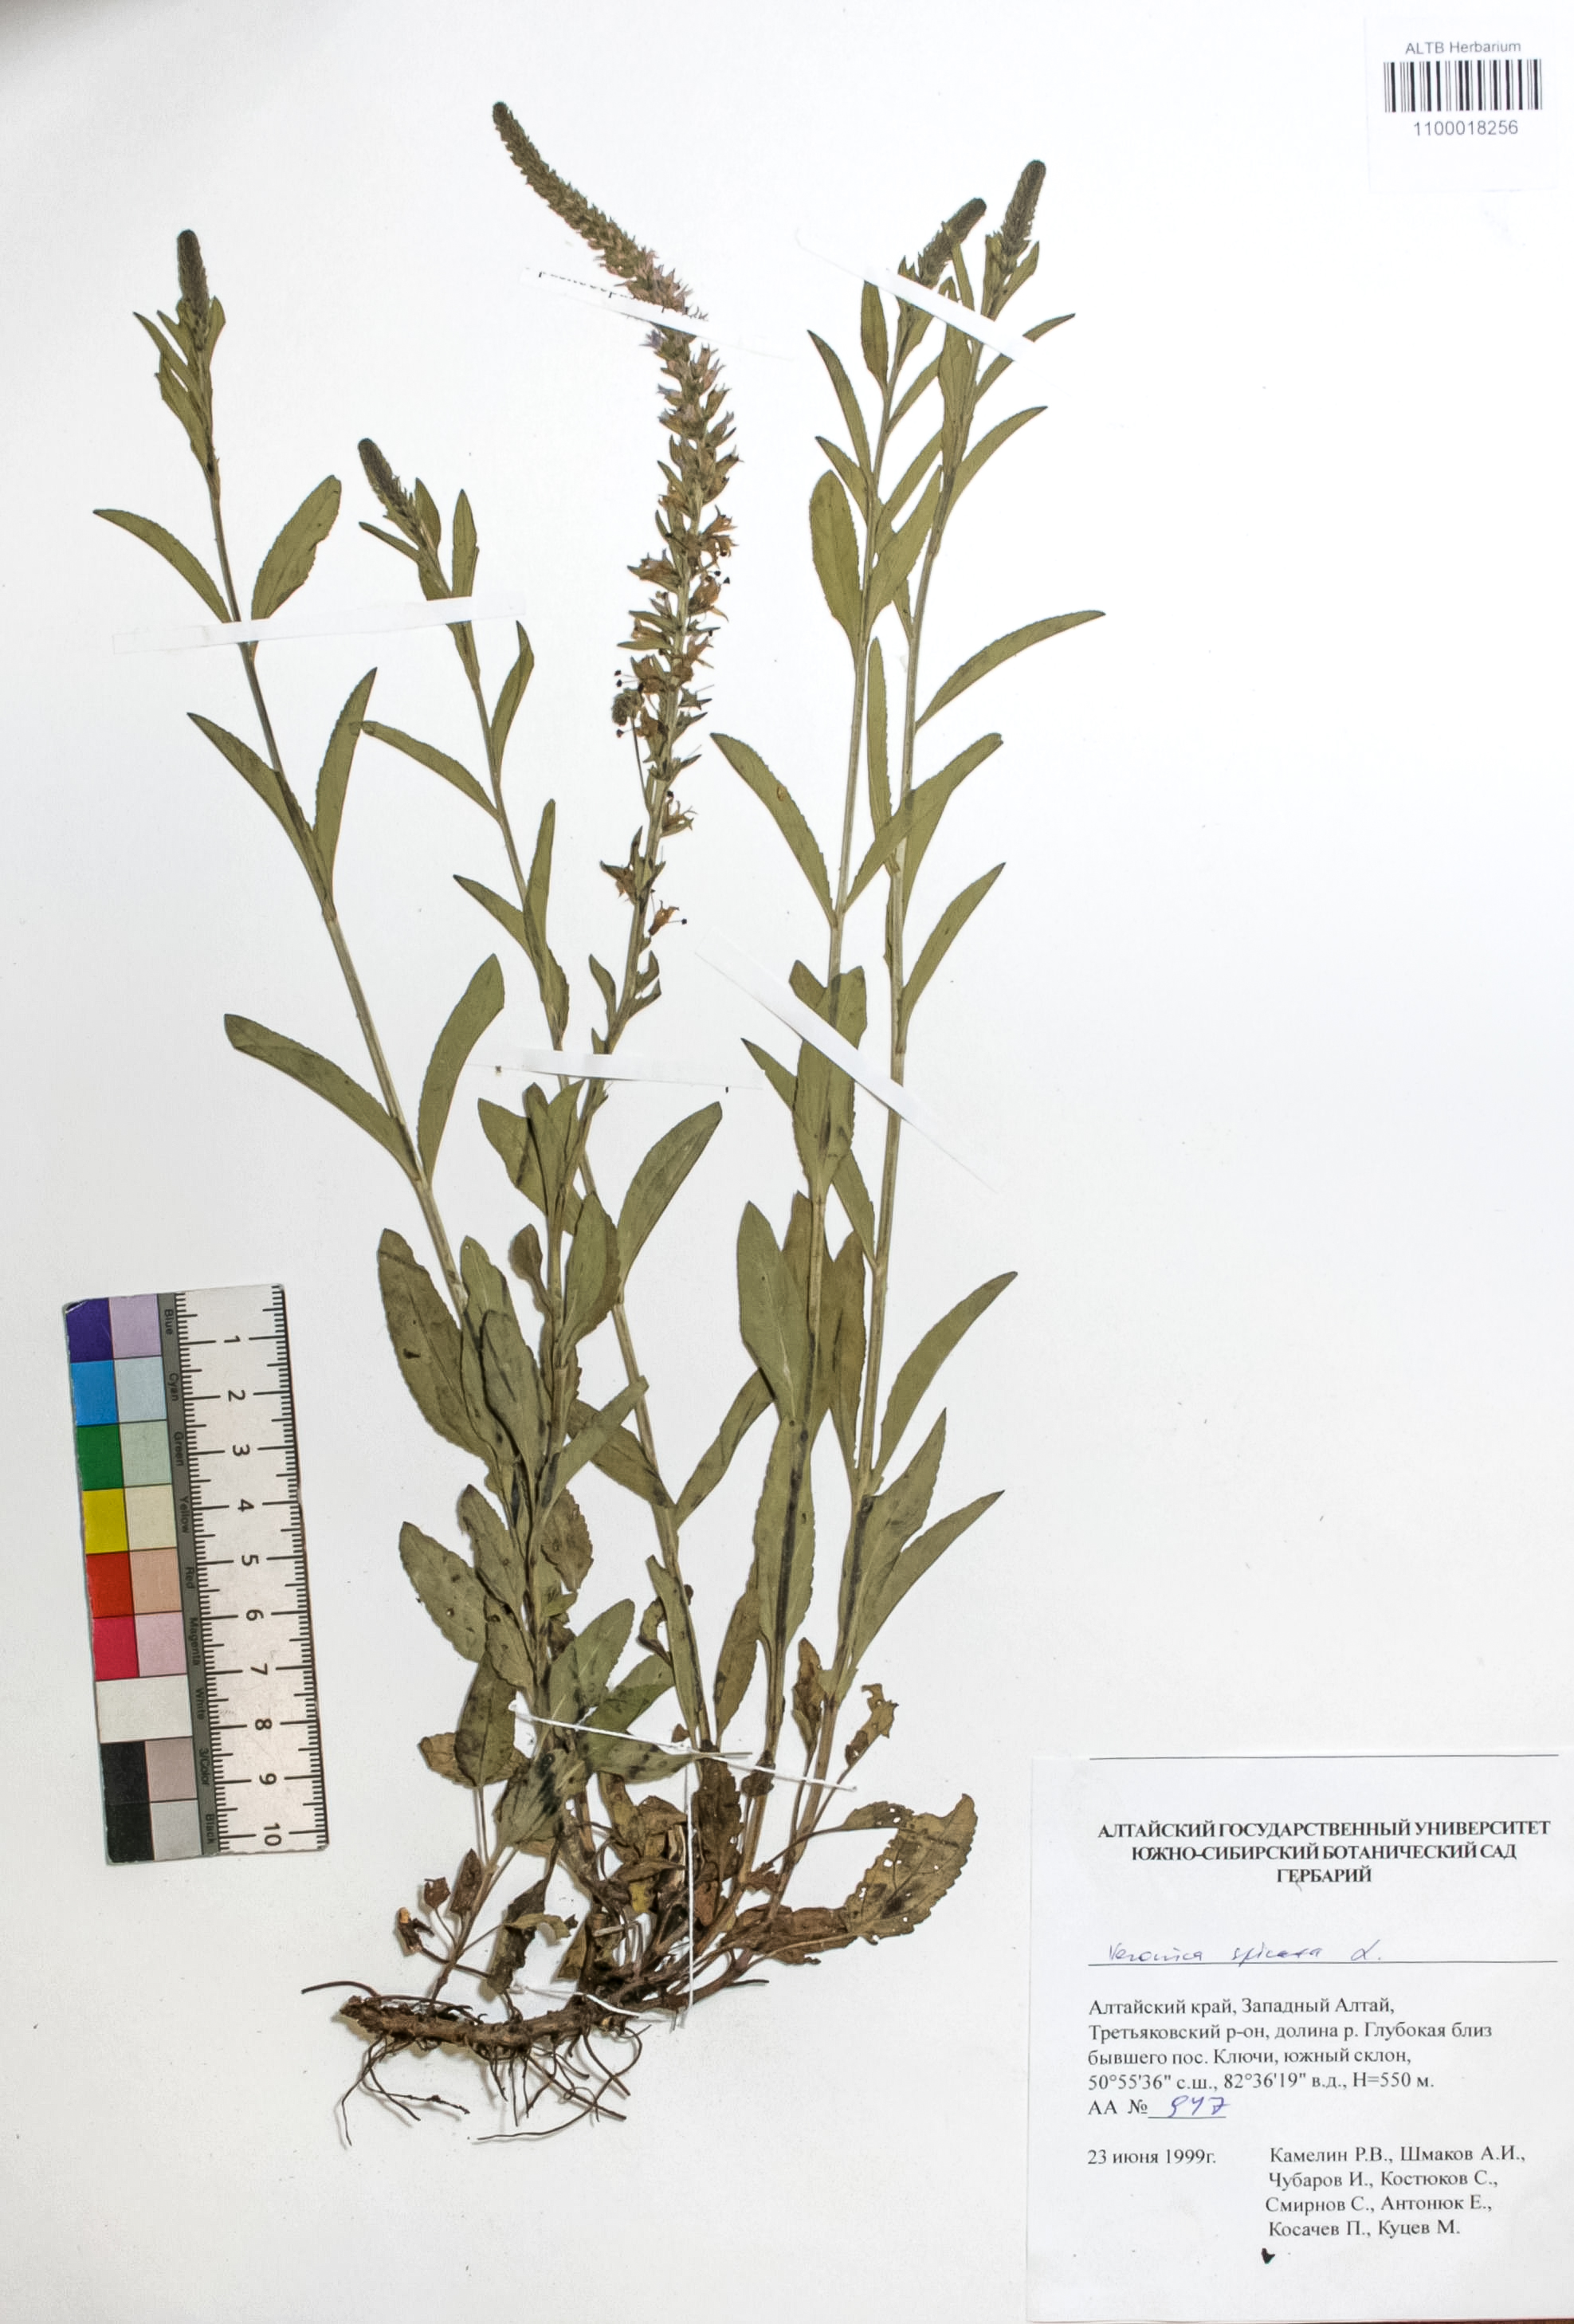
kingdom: Plantae
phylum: Tracheophyta
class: Magnoliopsida
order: Lamiales
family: Plantaginaceae
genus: Veronica
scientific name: Veronica spicata
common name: Spiked speedwell
